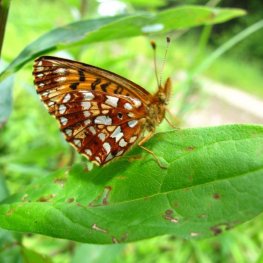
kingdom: Animalia
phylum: Arthropoda
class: Insecta
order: Lepidoptera
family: Nymphalidae
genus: Boloria
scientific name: Boloria selene
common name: Silver-bordered Fritillary
